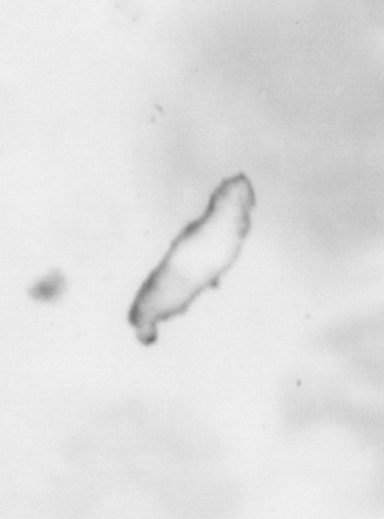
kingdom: Animalia
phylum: Chordata
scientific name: Chordata
